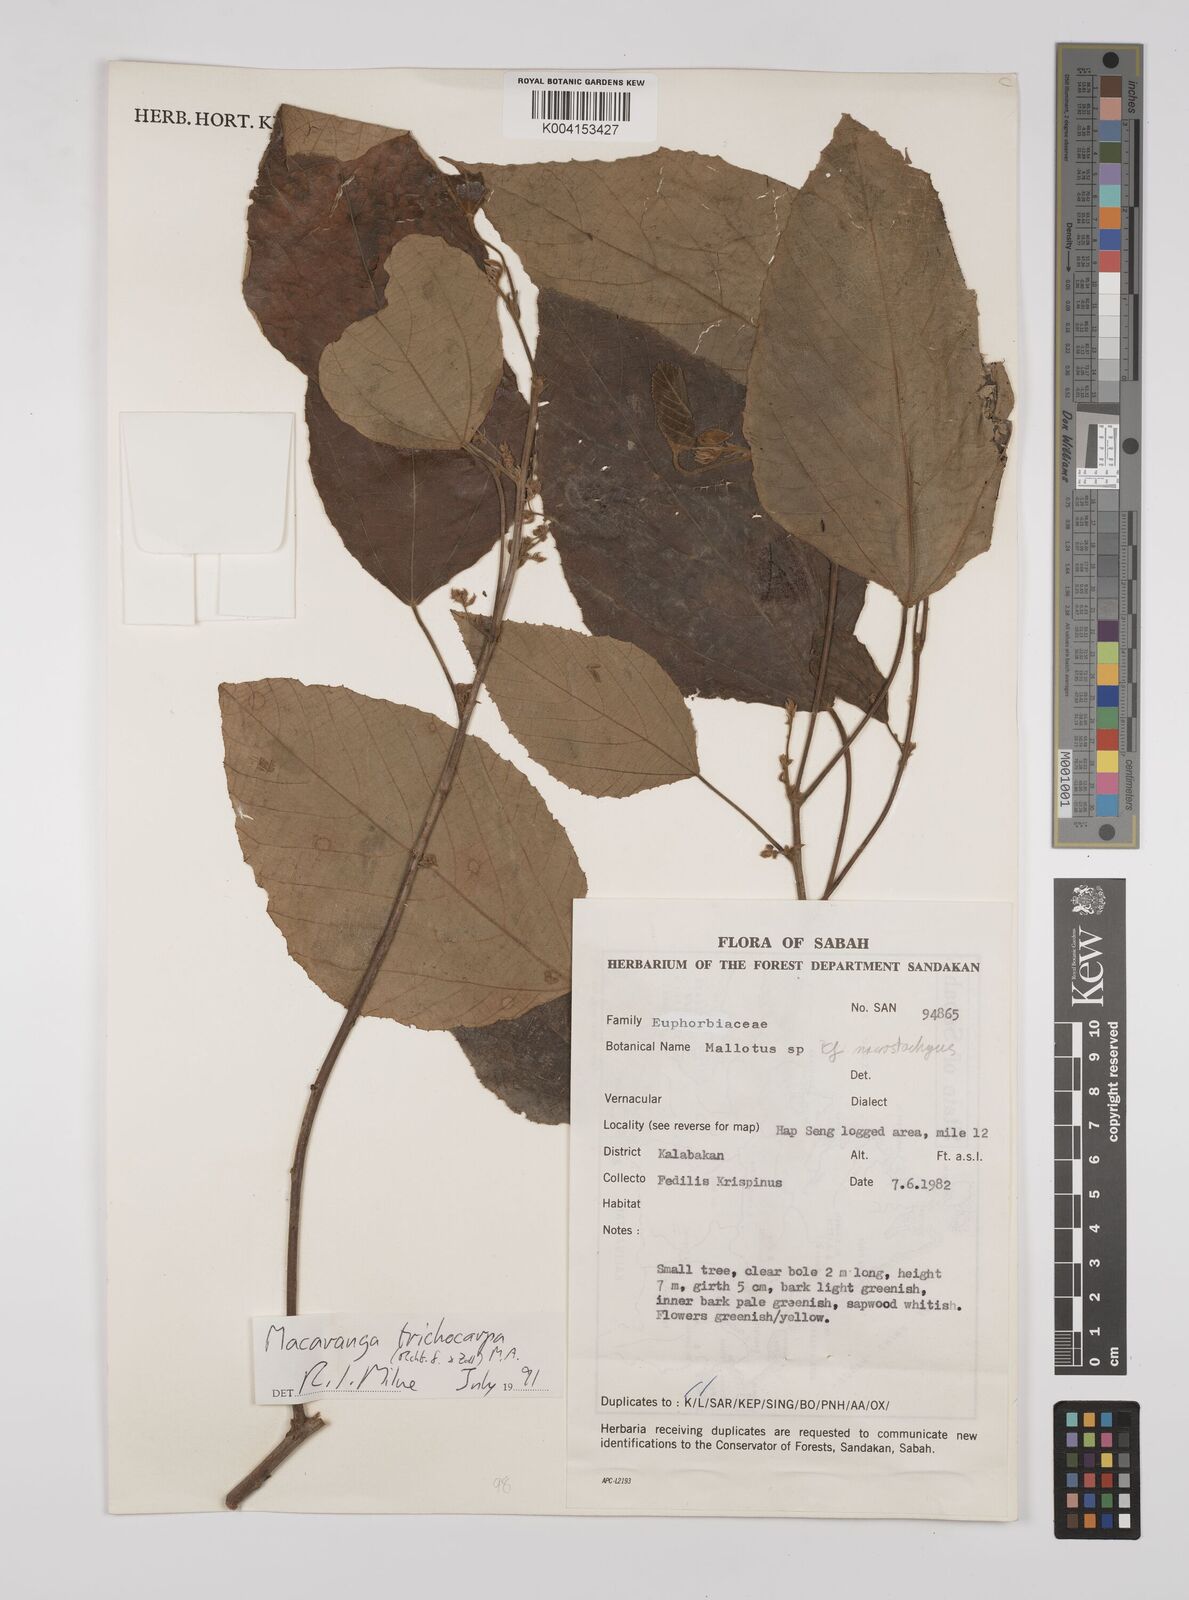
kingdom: Plantae
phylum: Tracheophyta
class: Magnoliopsida
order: Malpighiales
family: Euphorbiaceae
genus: Macaranga
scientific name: Macaranga trichocarpa
